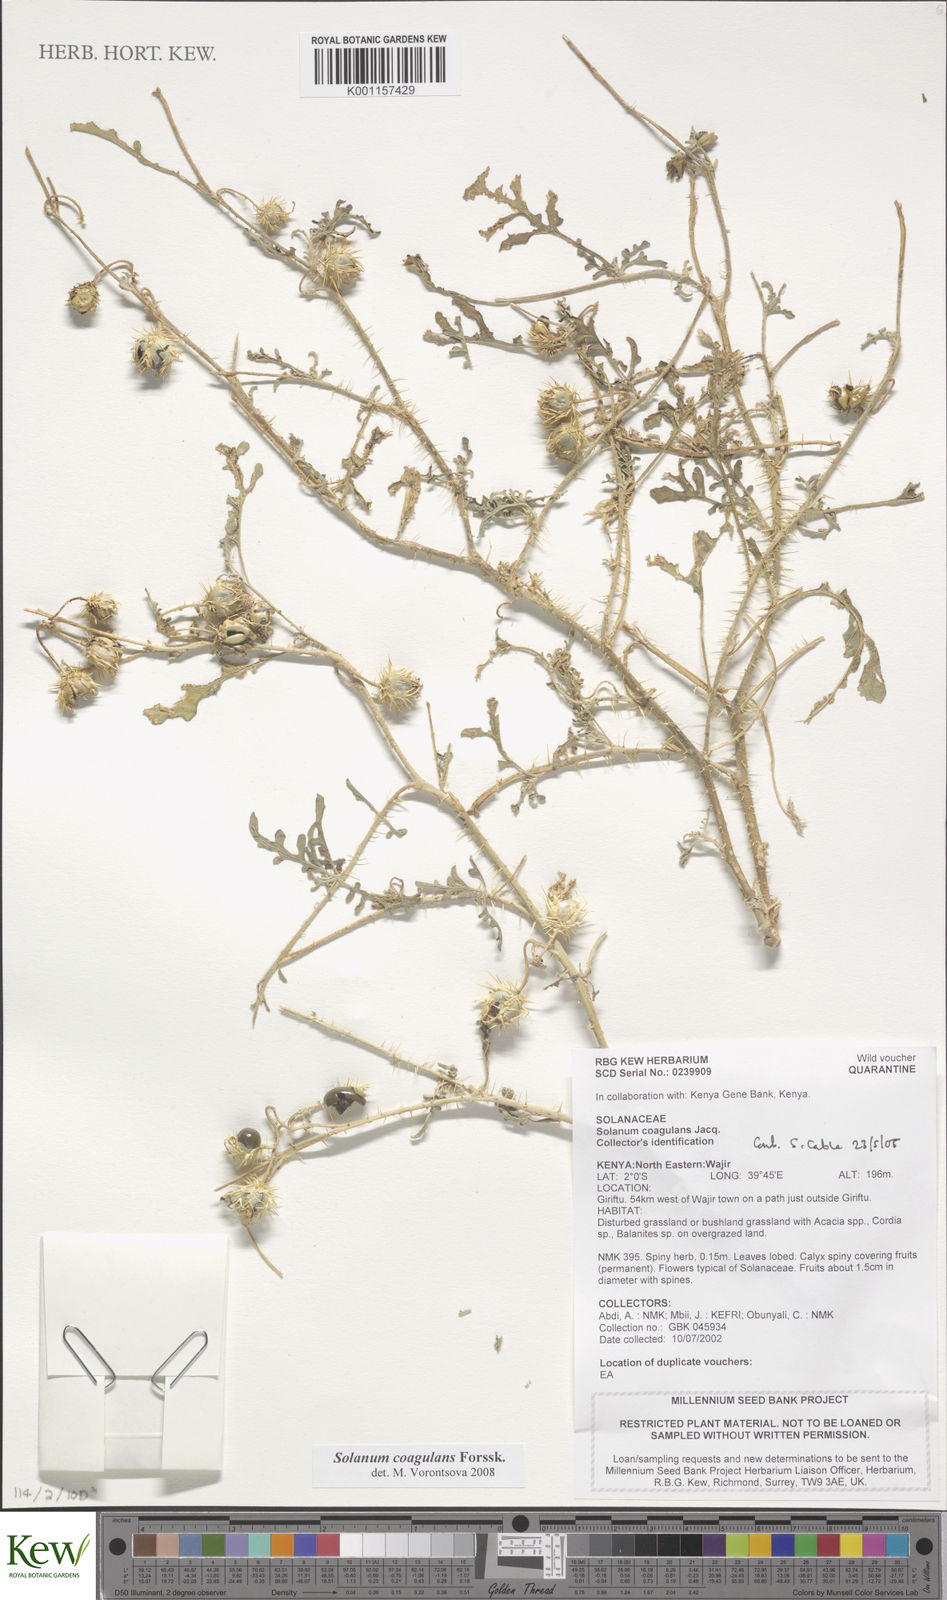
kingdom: Plantae
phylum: Tracheophyta
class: Magnoliopsida
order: Solanales
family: Solanaceae
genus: Solanum
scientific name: Solanum coagulans
